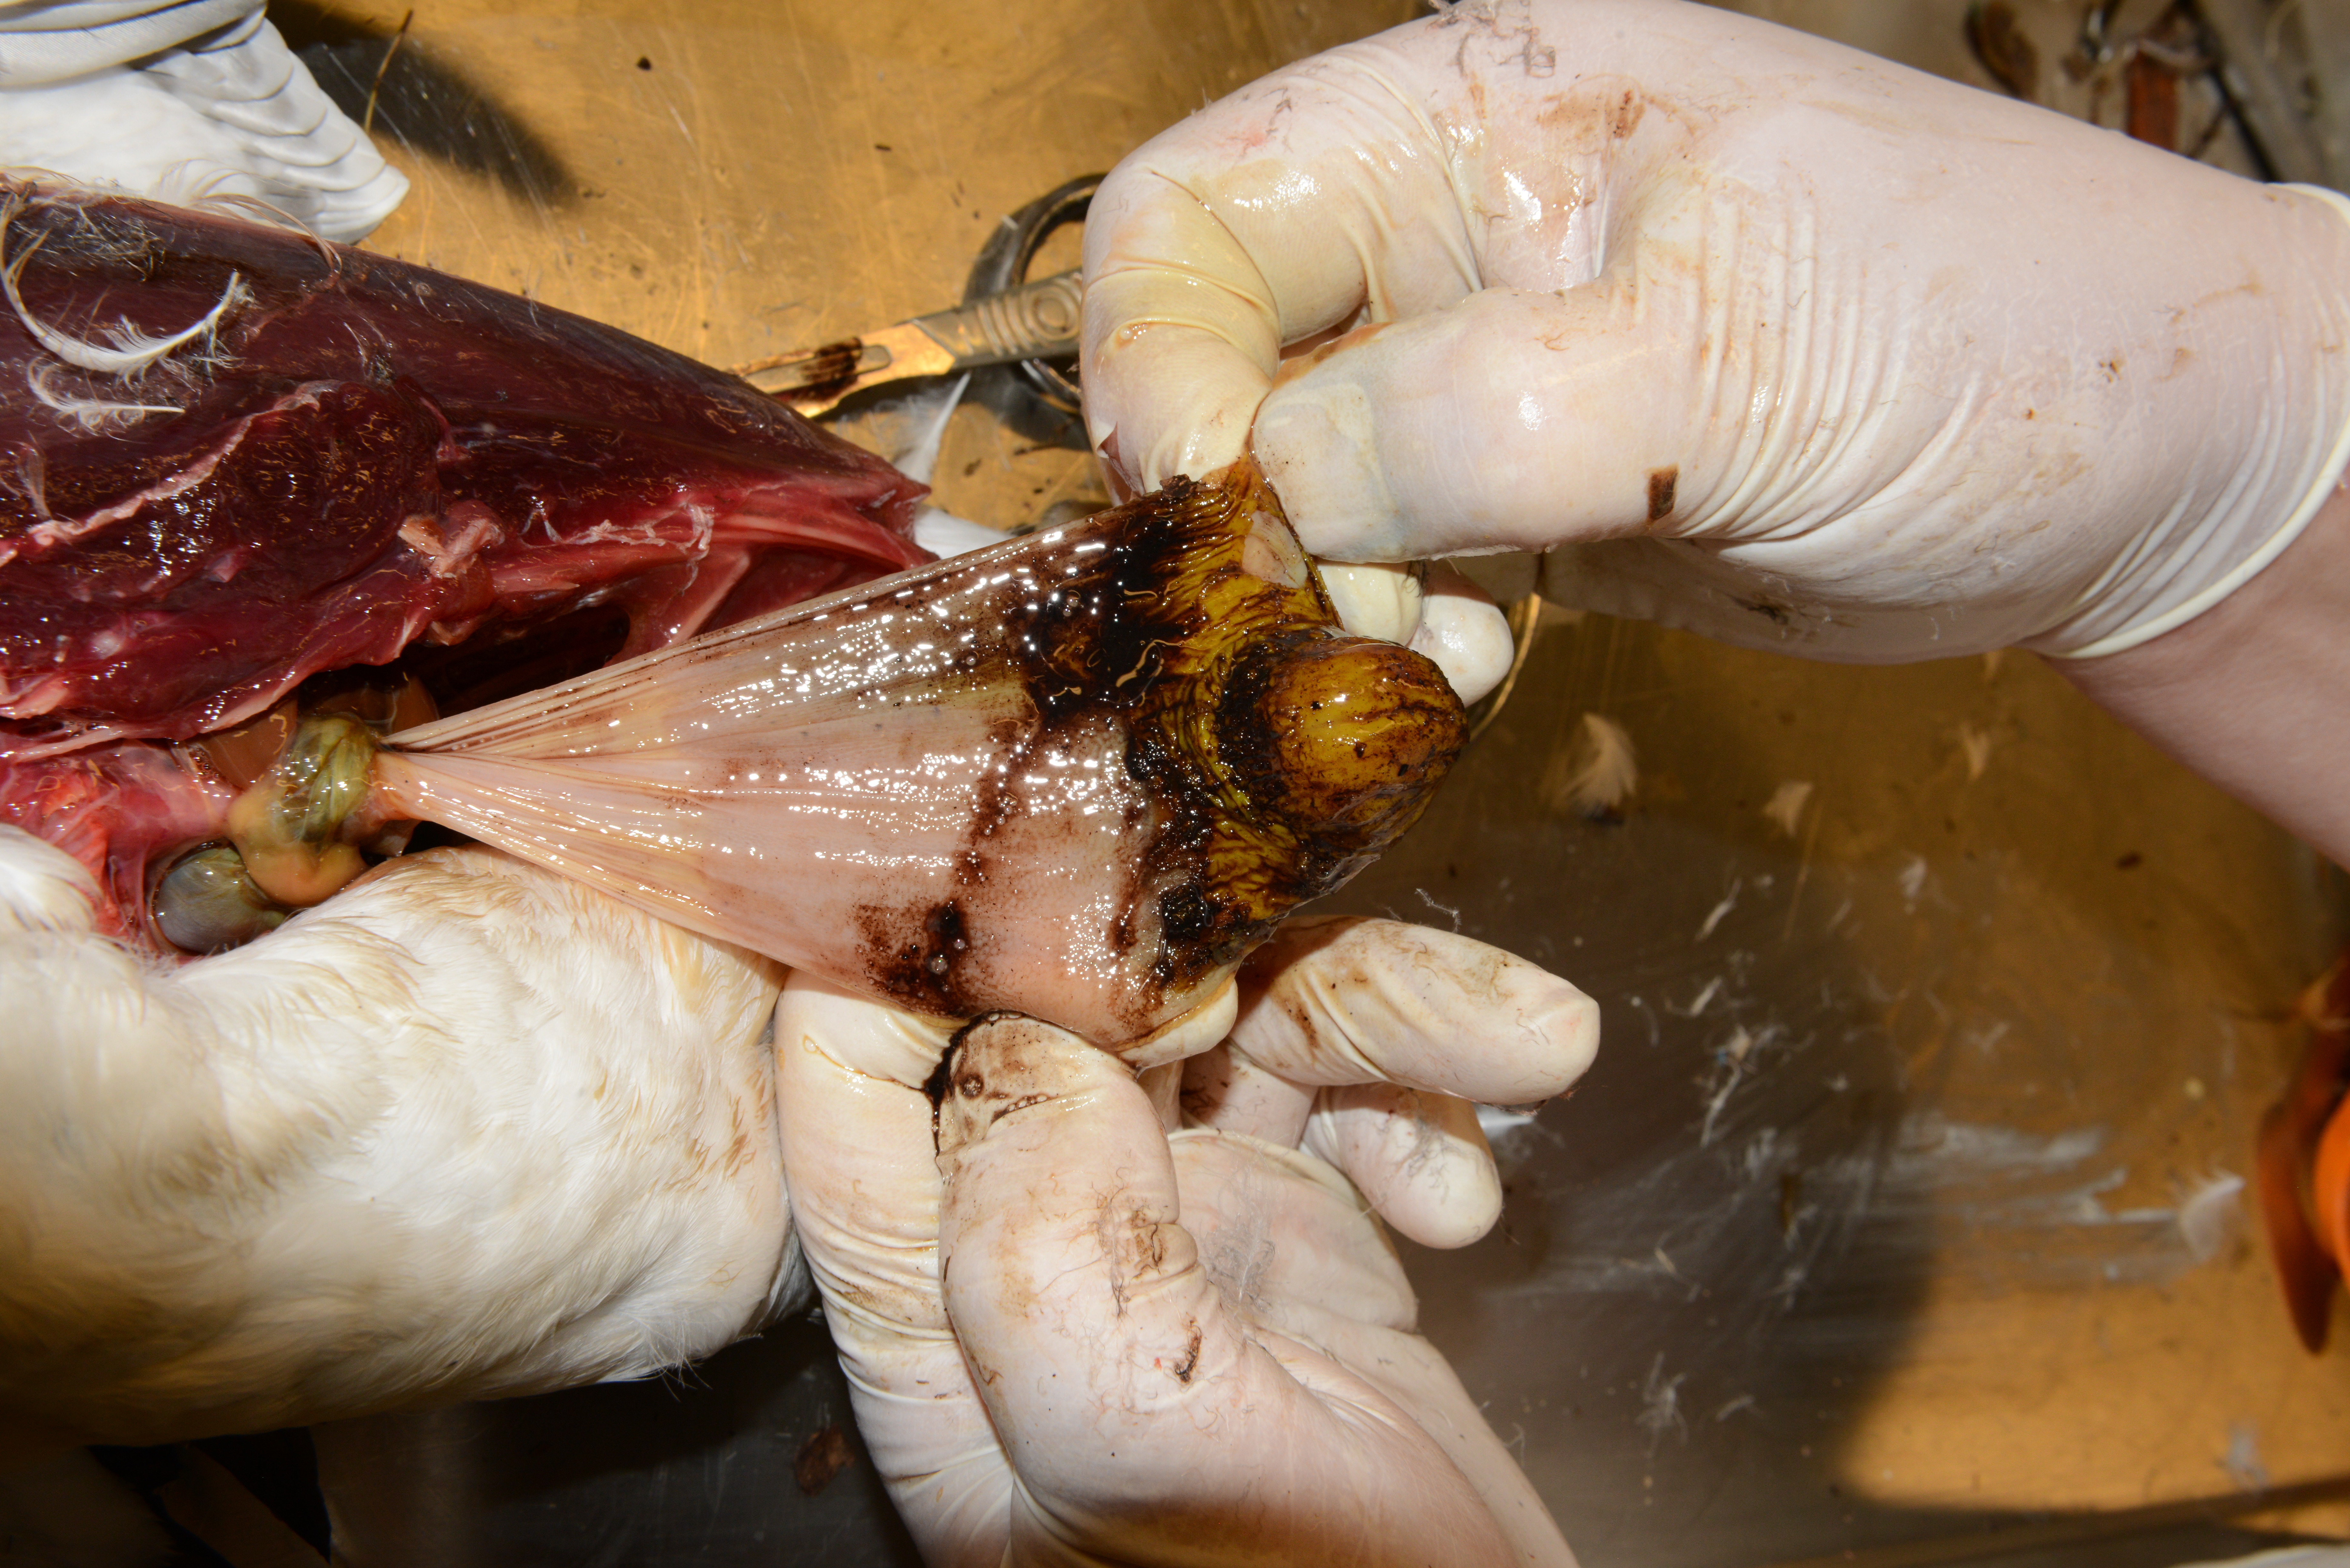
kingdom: Animalia
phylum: Chordata
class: Aves
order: Charadriiformes
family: Alcidae
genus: Uria
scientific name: Uria aalge
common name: Common murre
